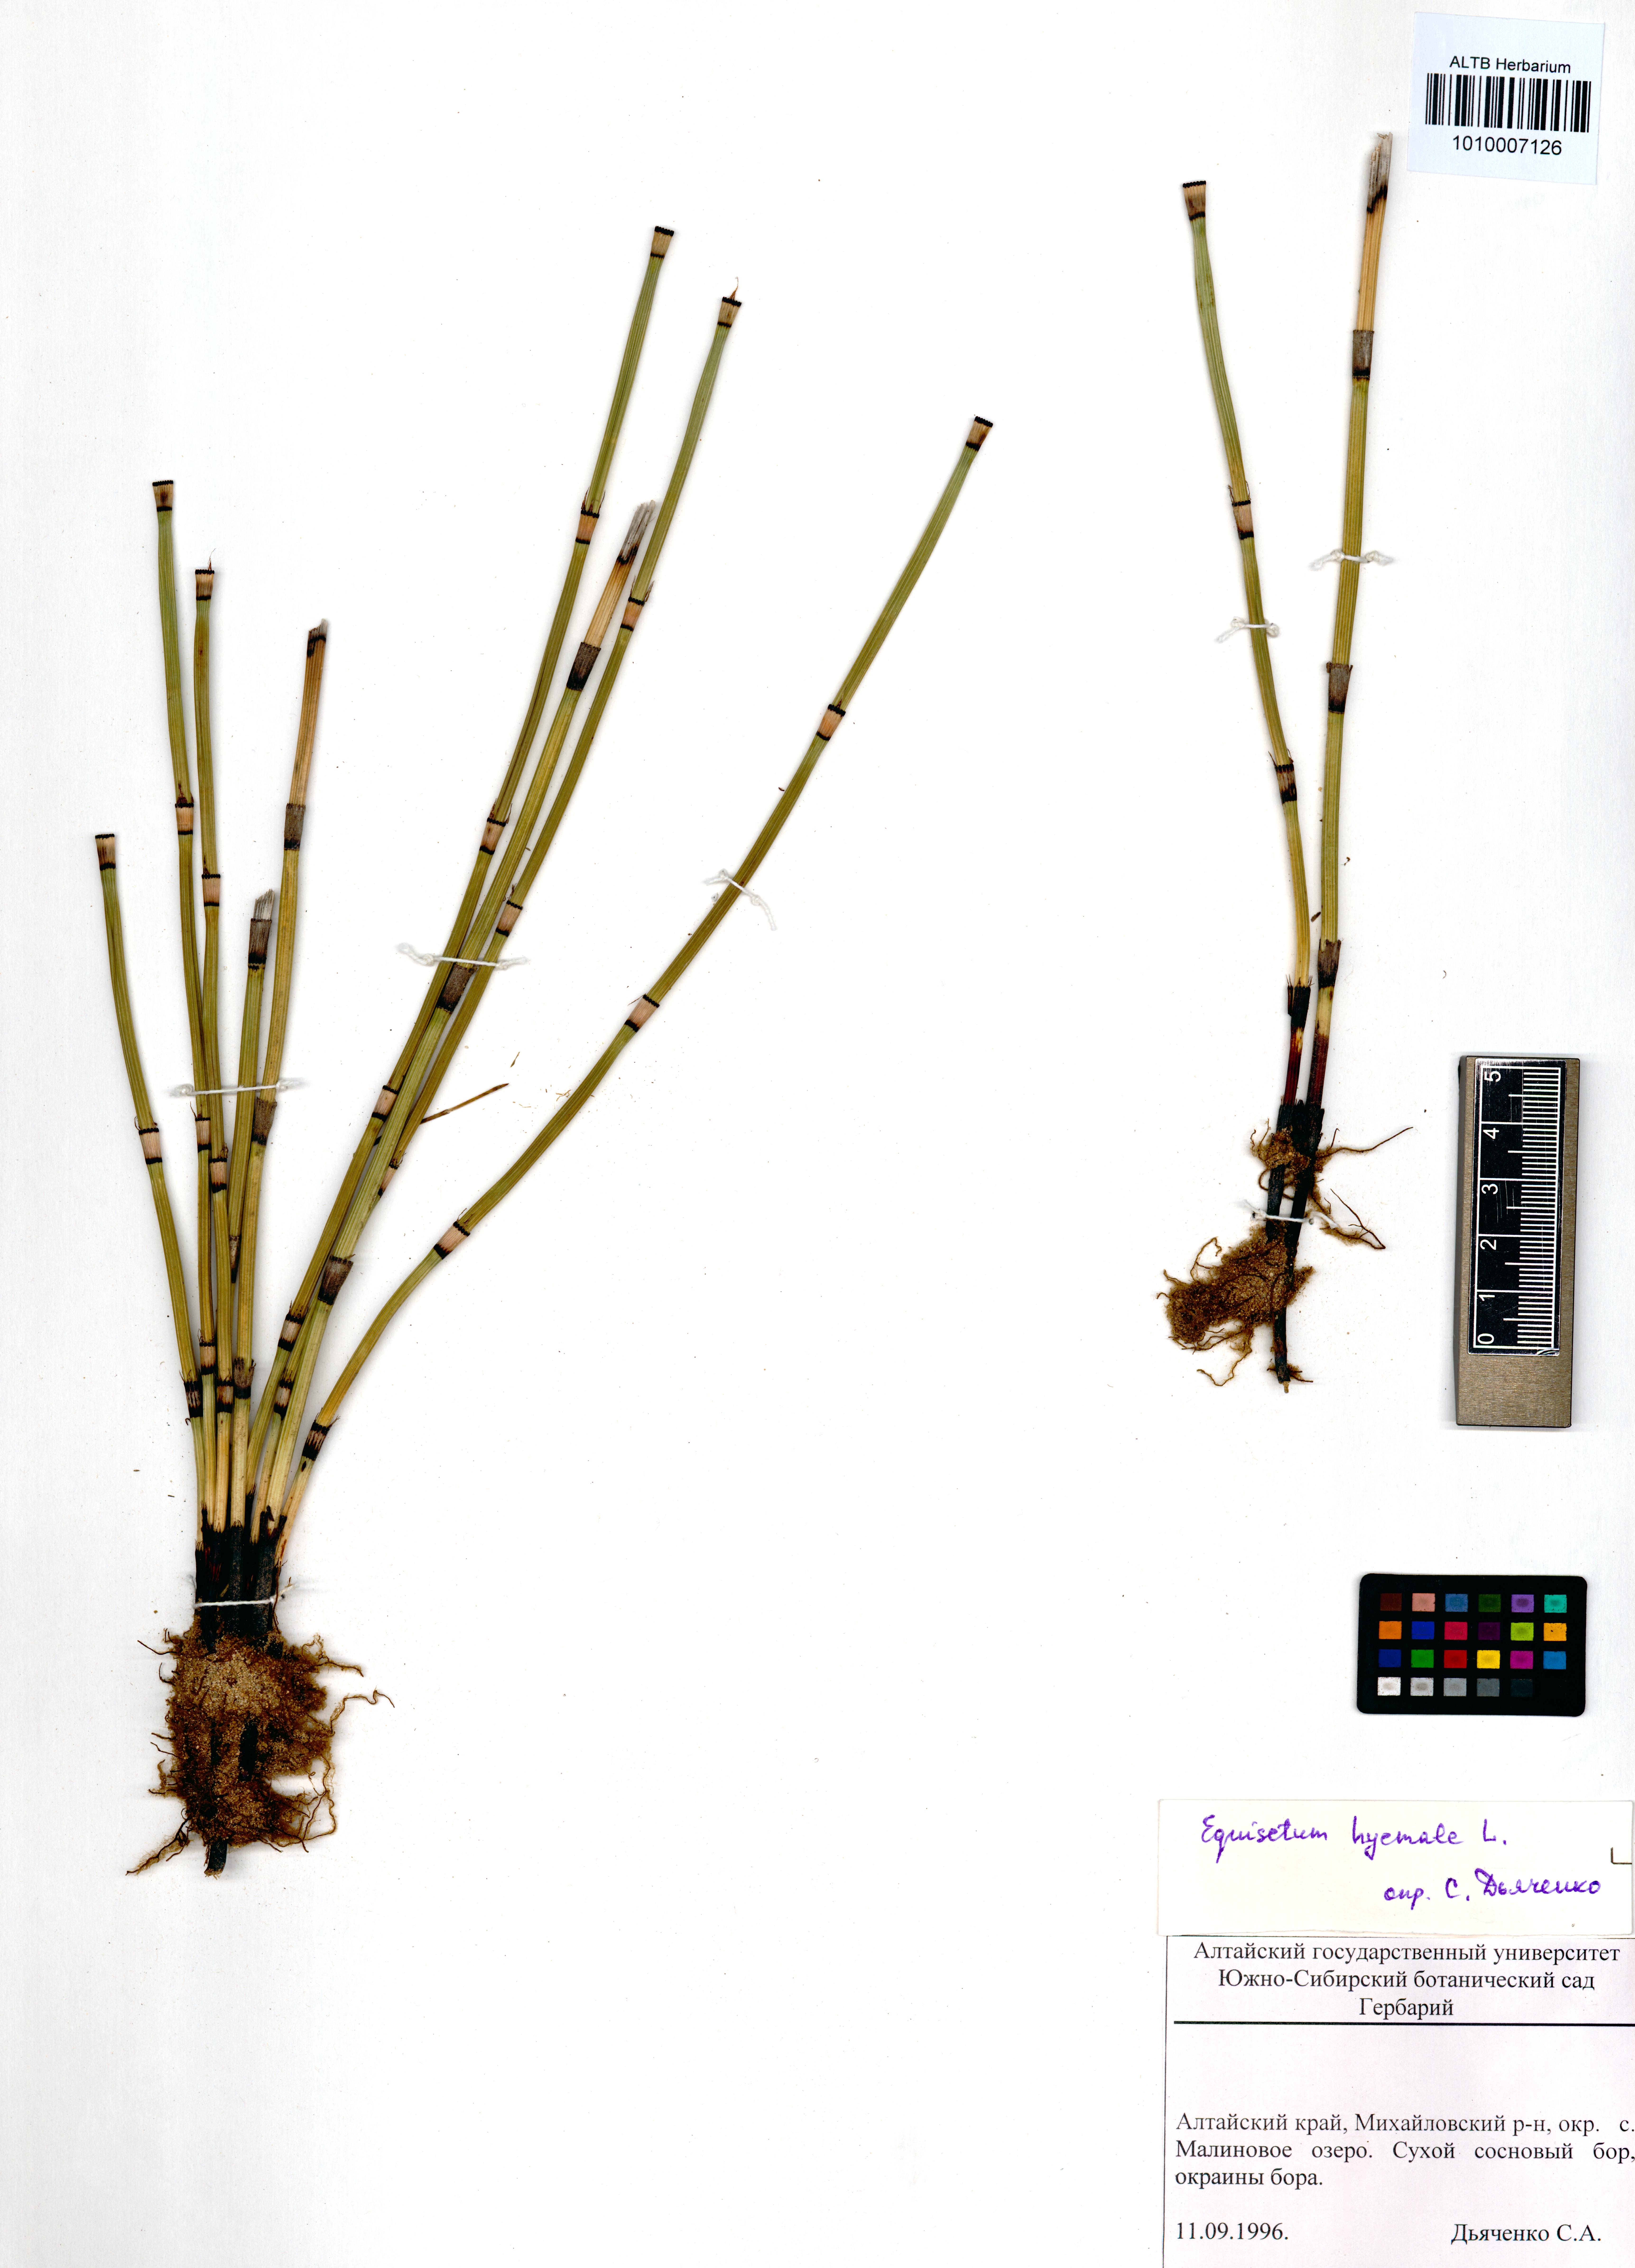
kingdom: Plantae
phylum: Tracheophyta
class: Polypodiopsida
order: Equisetales
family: Equisetaceae
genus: Equisetum
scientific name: Equisetum hyemale
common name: Rough horsetail
